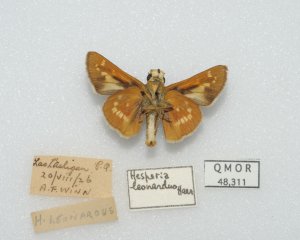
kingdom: Animalia
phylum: Arthropoda
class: Insecta
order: Lepidoptera
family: Hesperiidae
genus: Hesperia
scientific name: Hesperia leonardus
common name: Leonard's Skipper
